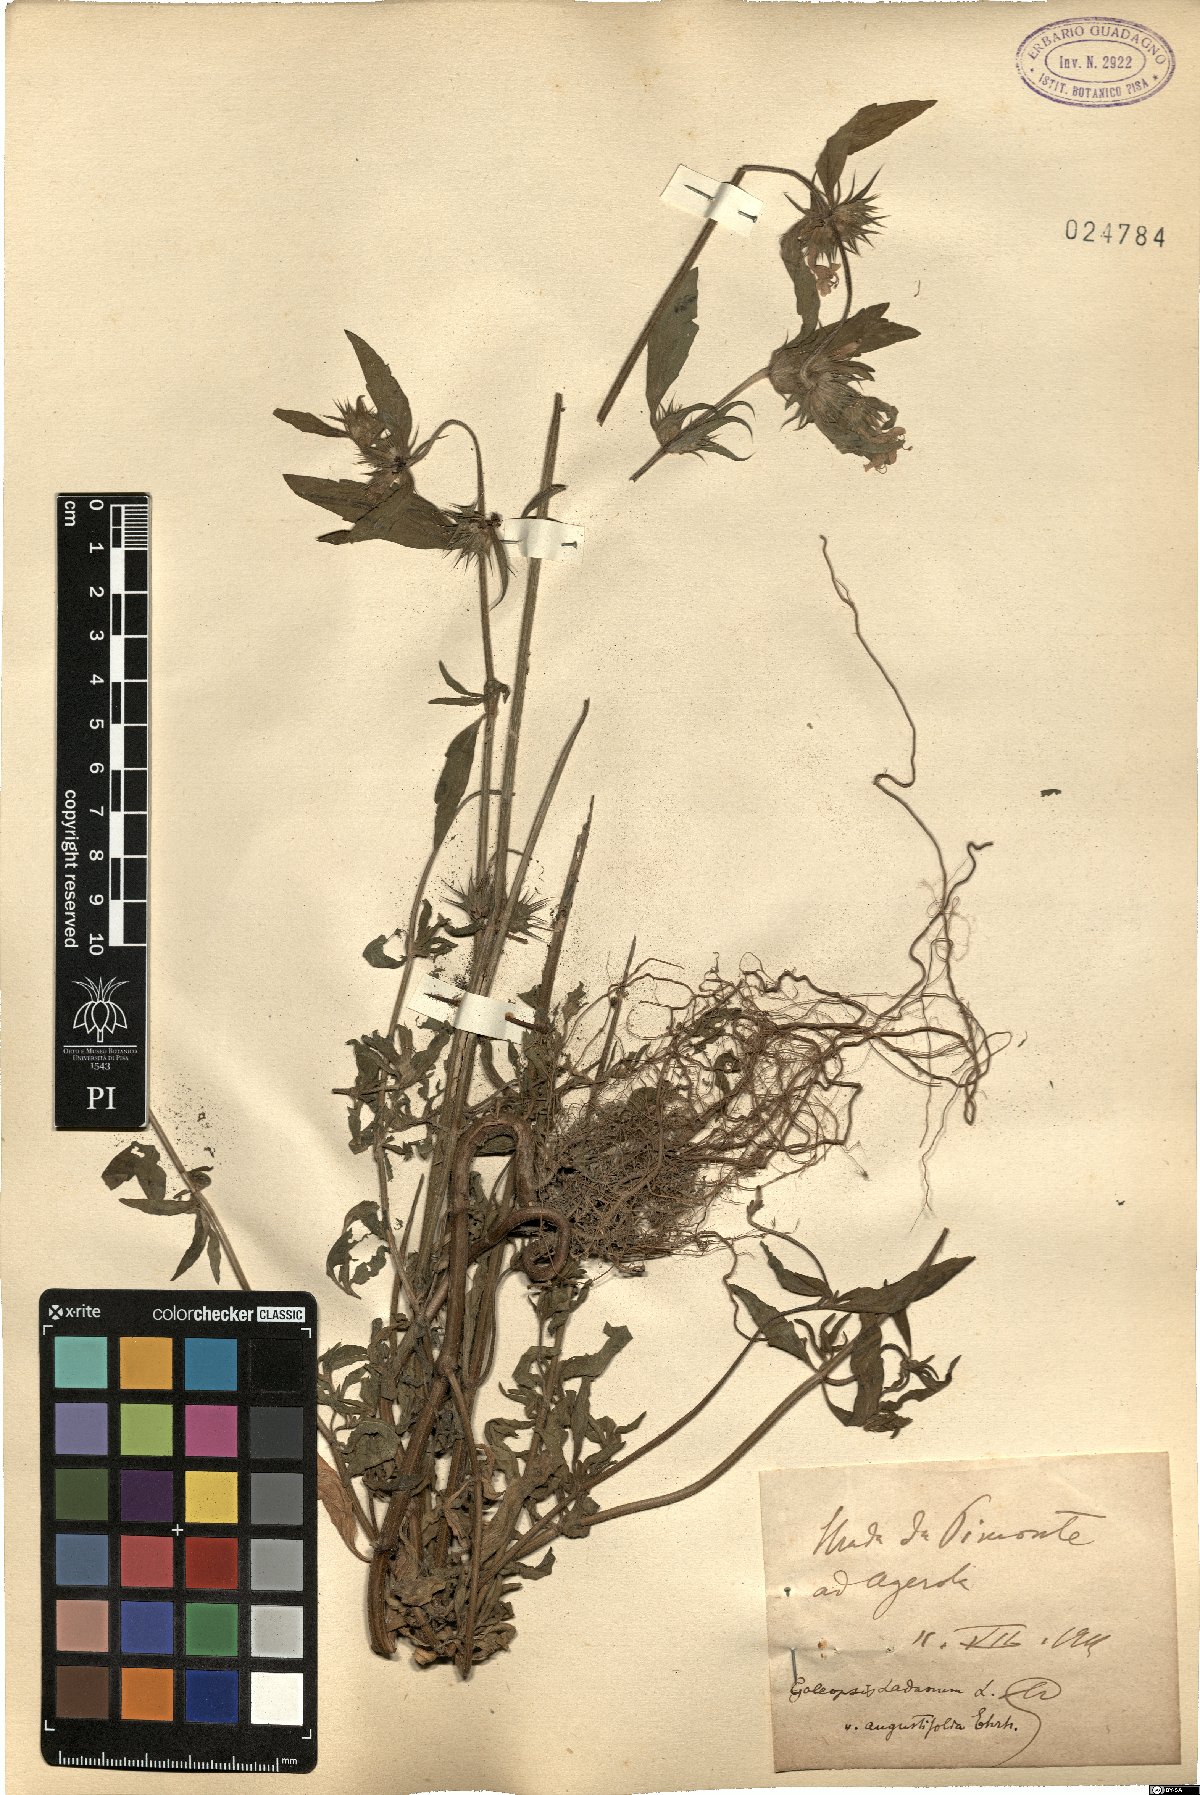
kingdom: Plantae
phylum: Tracheophyta
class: Magnoliopsida
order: Lamiales
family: Lamiaceae
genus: Galeopsis
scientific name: Galeopsis angustifolia
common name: Red hemp-nettle
